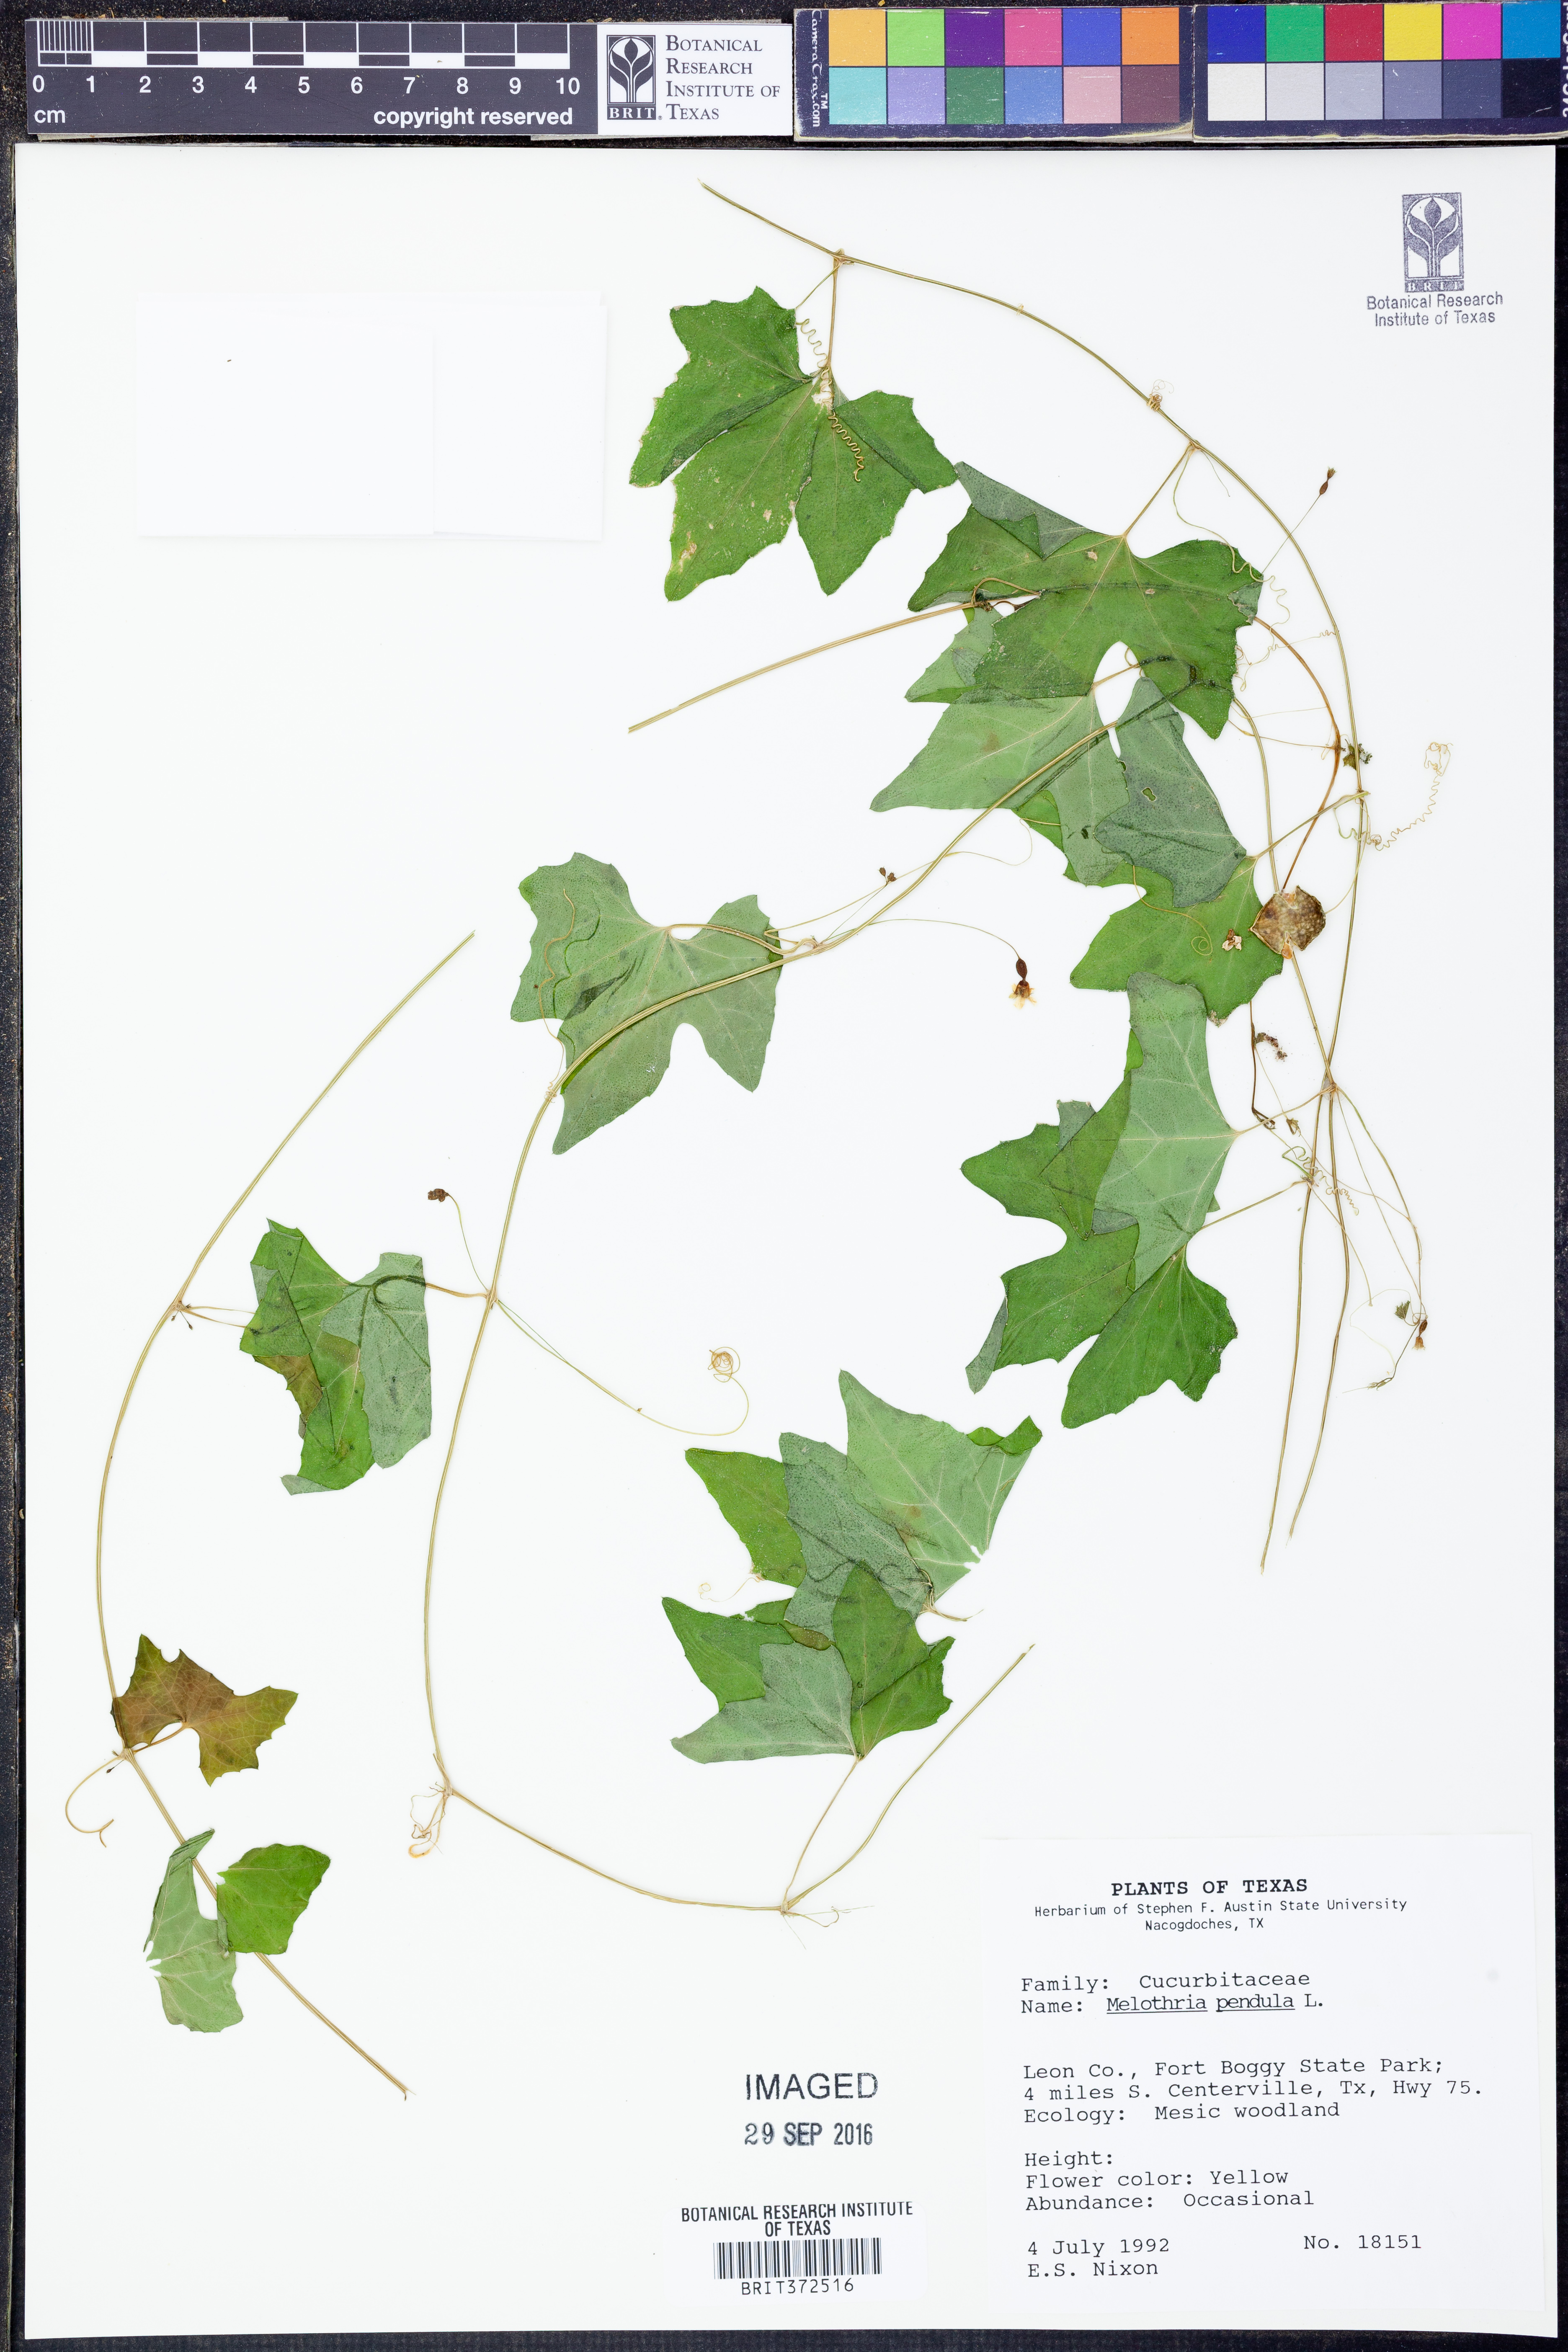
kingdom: Plantae
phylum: Tracheophyta
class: Magnoliopsida
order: Cucurbitales
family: Cucurbitaceae
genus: Melothria
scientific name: Melothria pendula
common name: Creeping-cucumber
